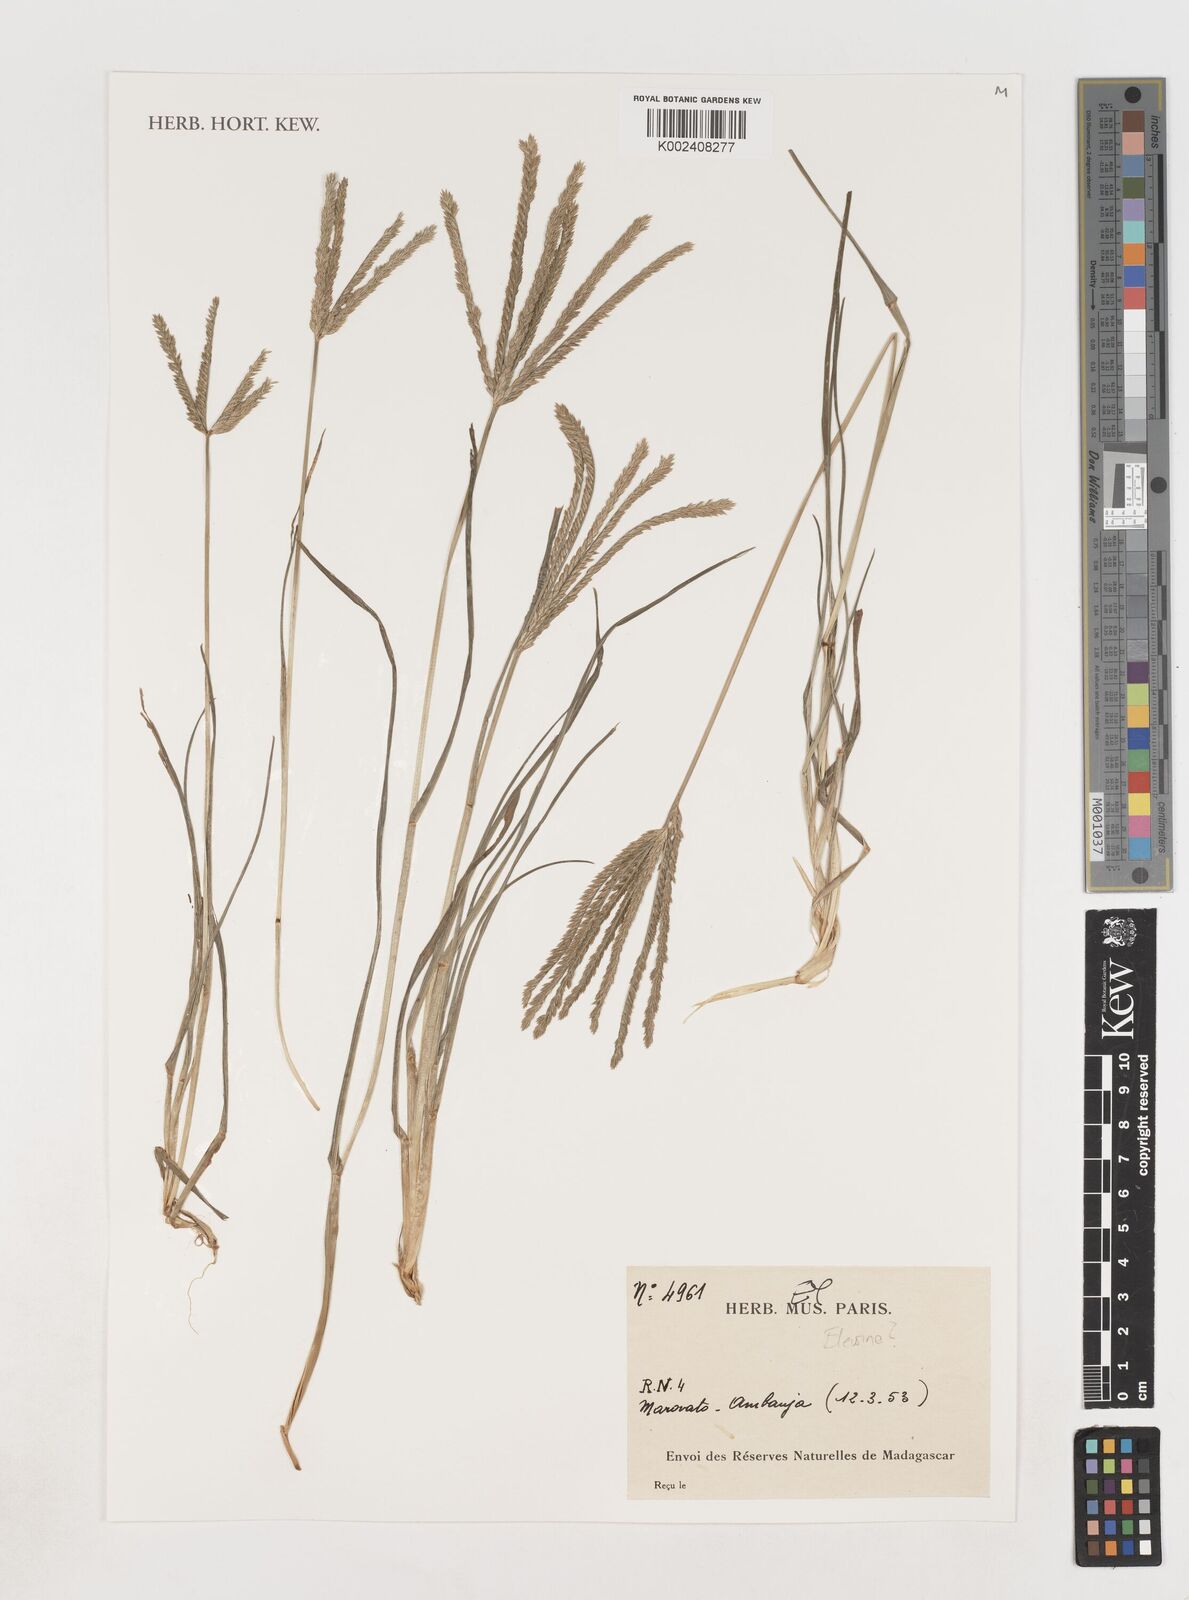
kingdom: Plantae
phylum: Tracheophyta
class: Liliopsida
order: Poales
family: Poaceae
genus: Eleusine
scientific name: Eleusine
